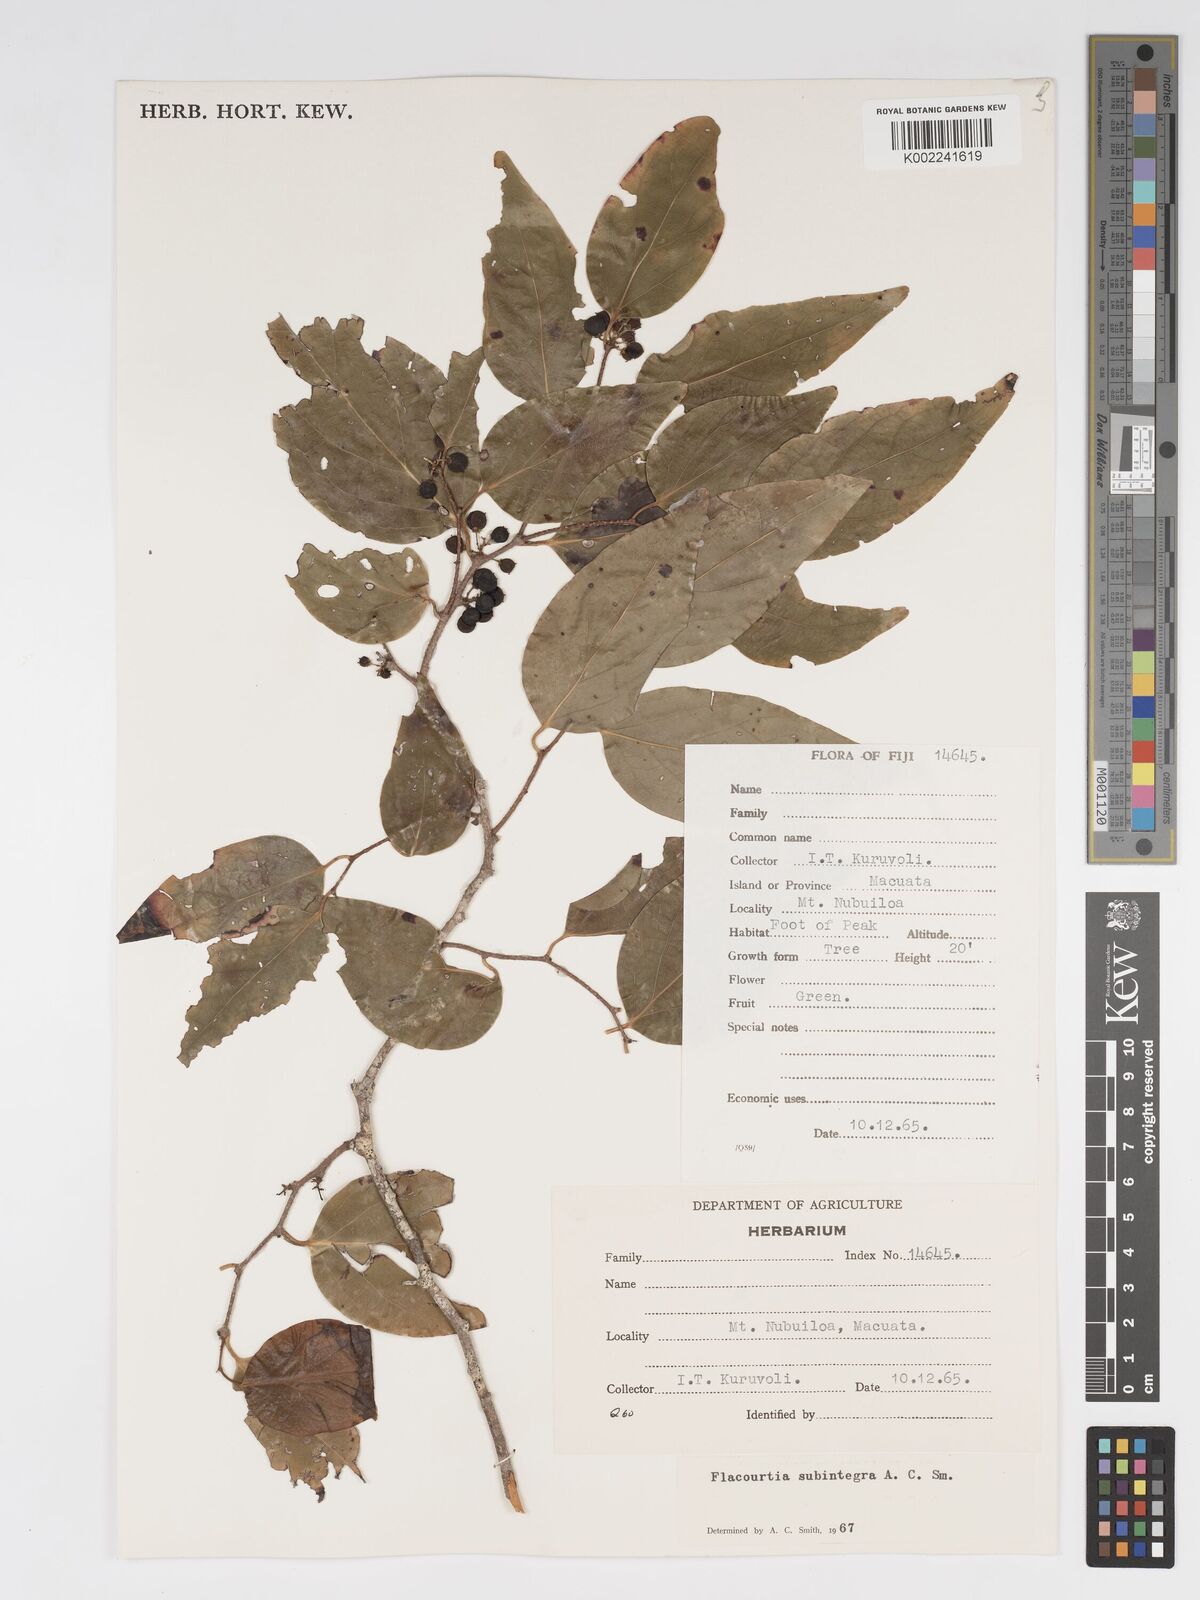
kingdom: Plantae
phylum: Tracheophyta
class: Magnoliopsida
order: Malpighiales
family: Salicaceae
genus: Flacourtia
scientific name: Flacourtia subintegra
